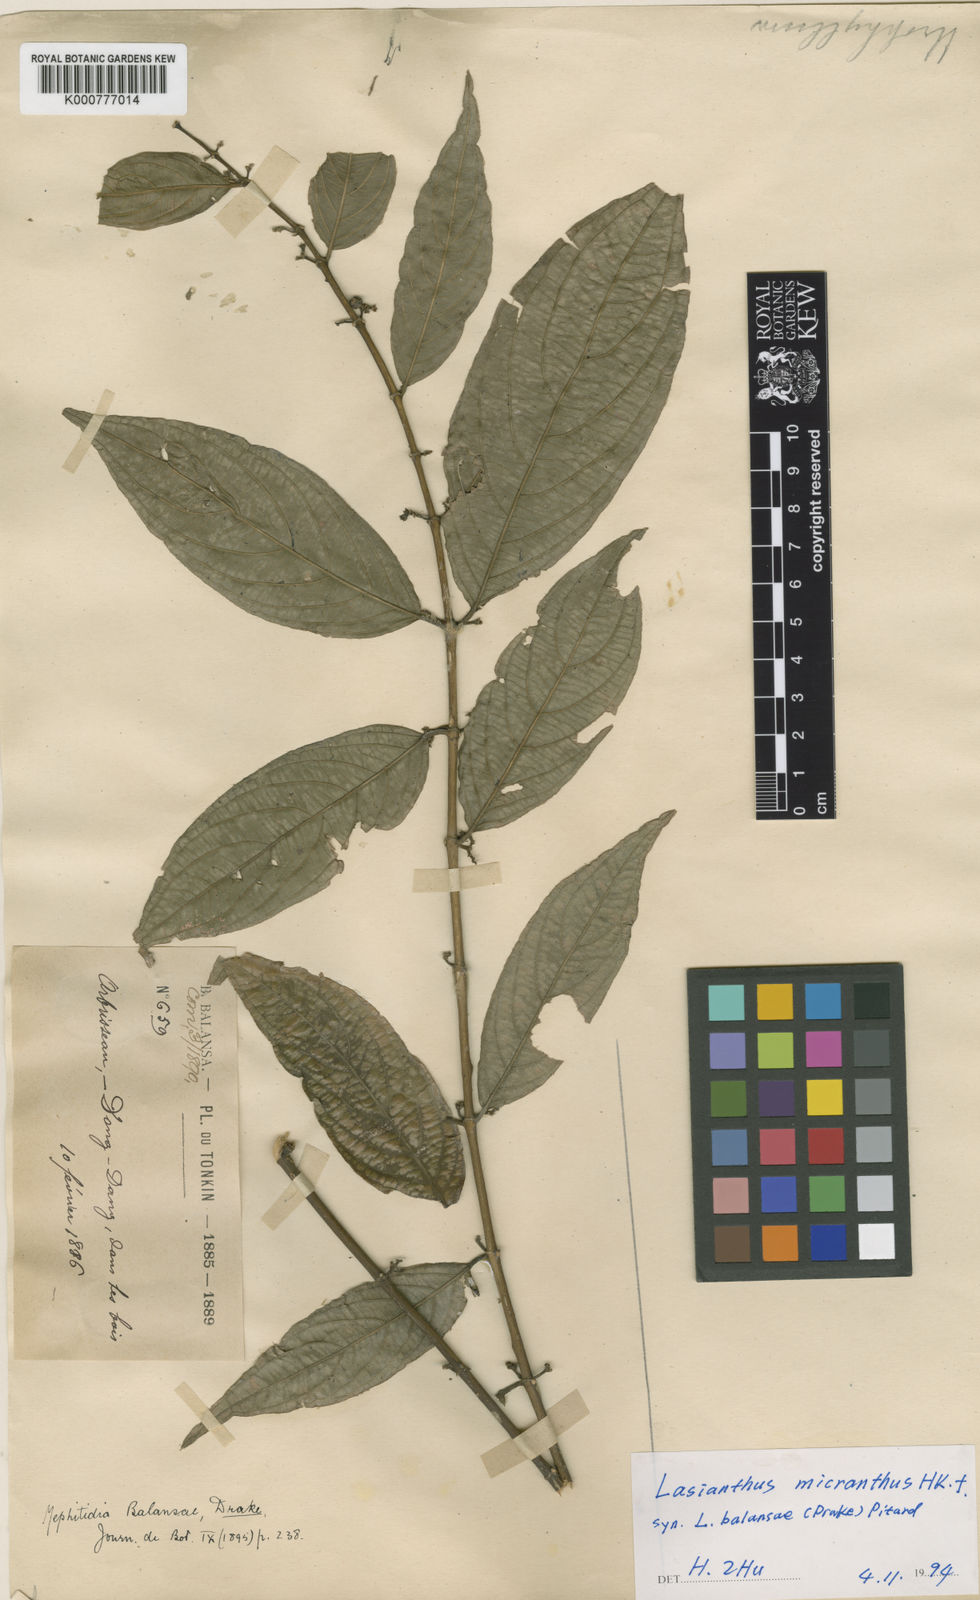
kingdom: Plantae
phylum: Tracheophyta
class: Magnoliopsida
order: Gentianales
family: Rubiaceae
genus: Lasianthus
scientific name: Lasianthus micranthus
